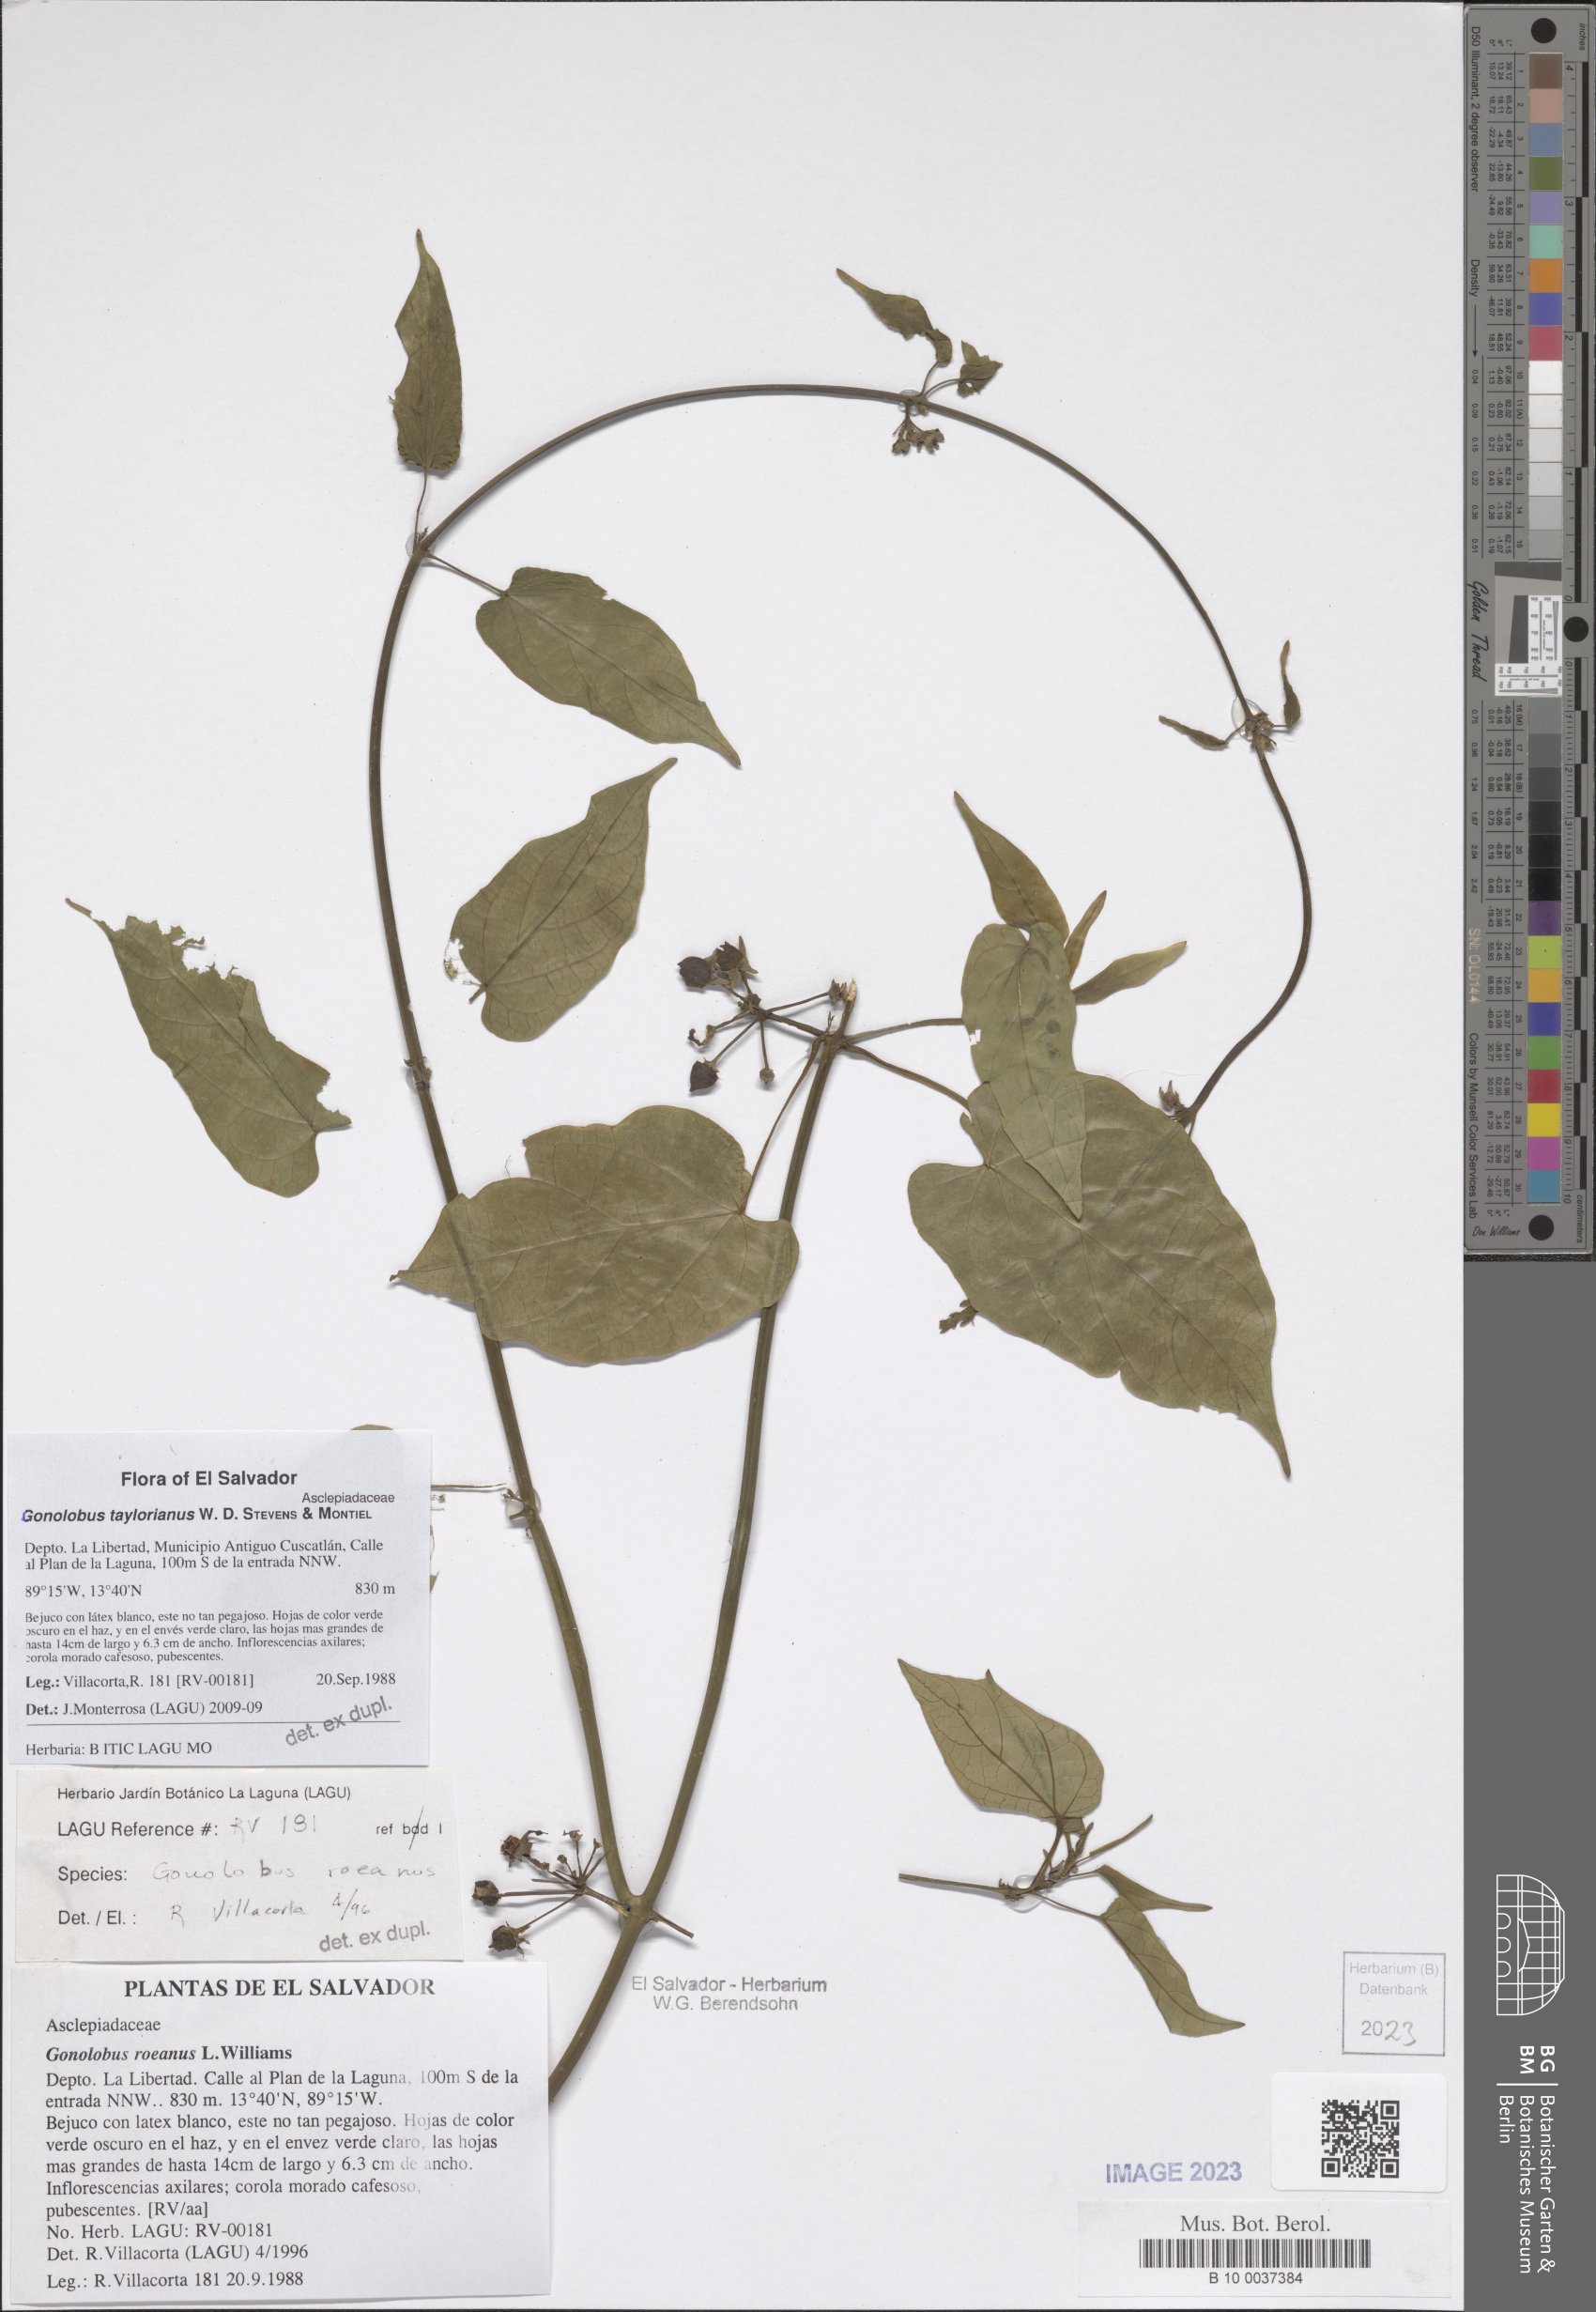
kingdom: Plantae
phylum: Tracheophyta
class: Magnoliopsida
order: Gentianales
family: Apocynaceae
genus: Gonolobus
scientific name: Gonolobus taylorianus
